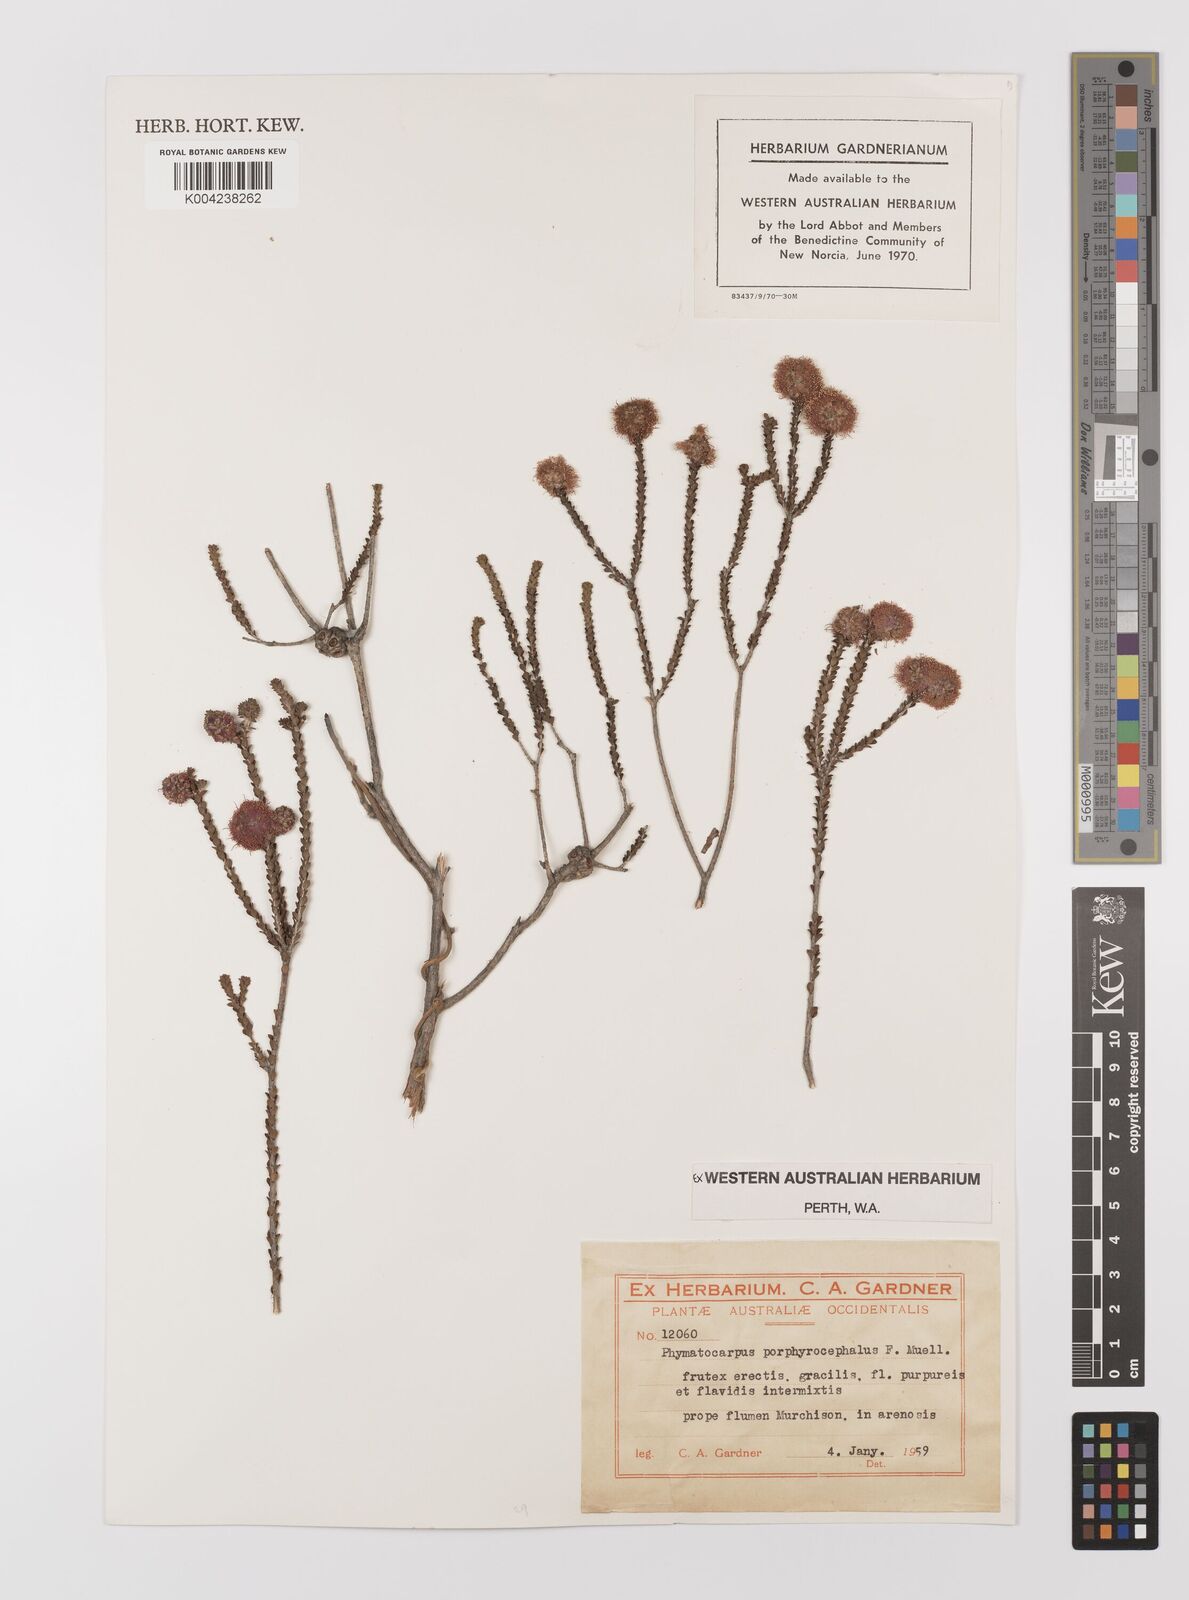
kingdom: Plantae
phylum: Tracheophyta
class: Magnoliopsida
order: Myrtales
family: Myrtaceae
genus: Melaleuca
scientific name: Melaleuca porphyrocephala
